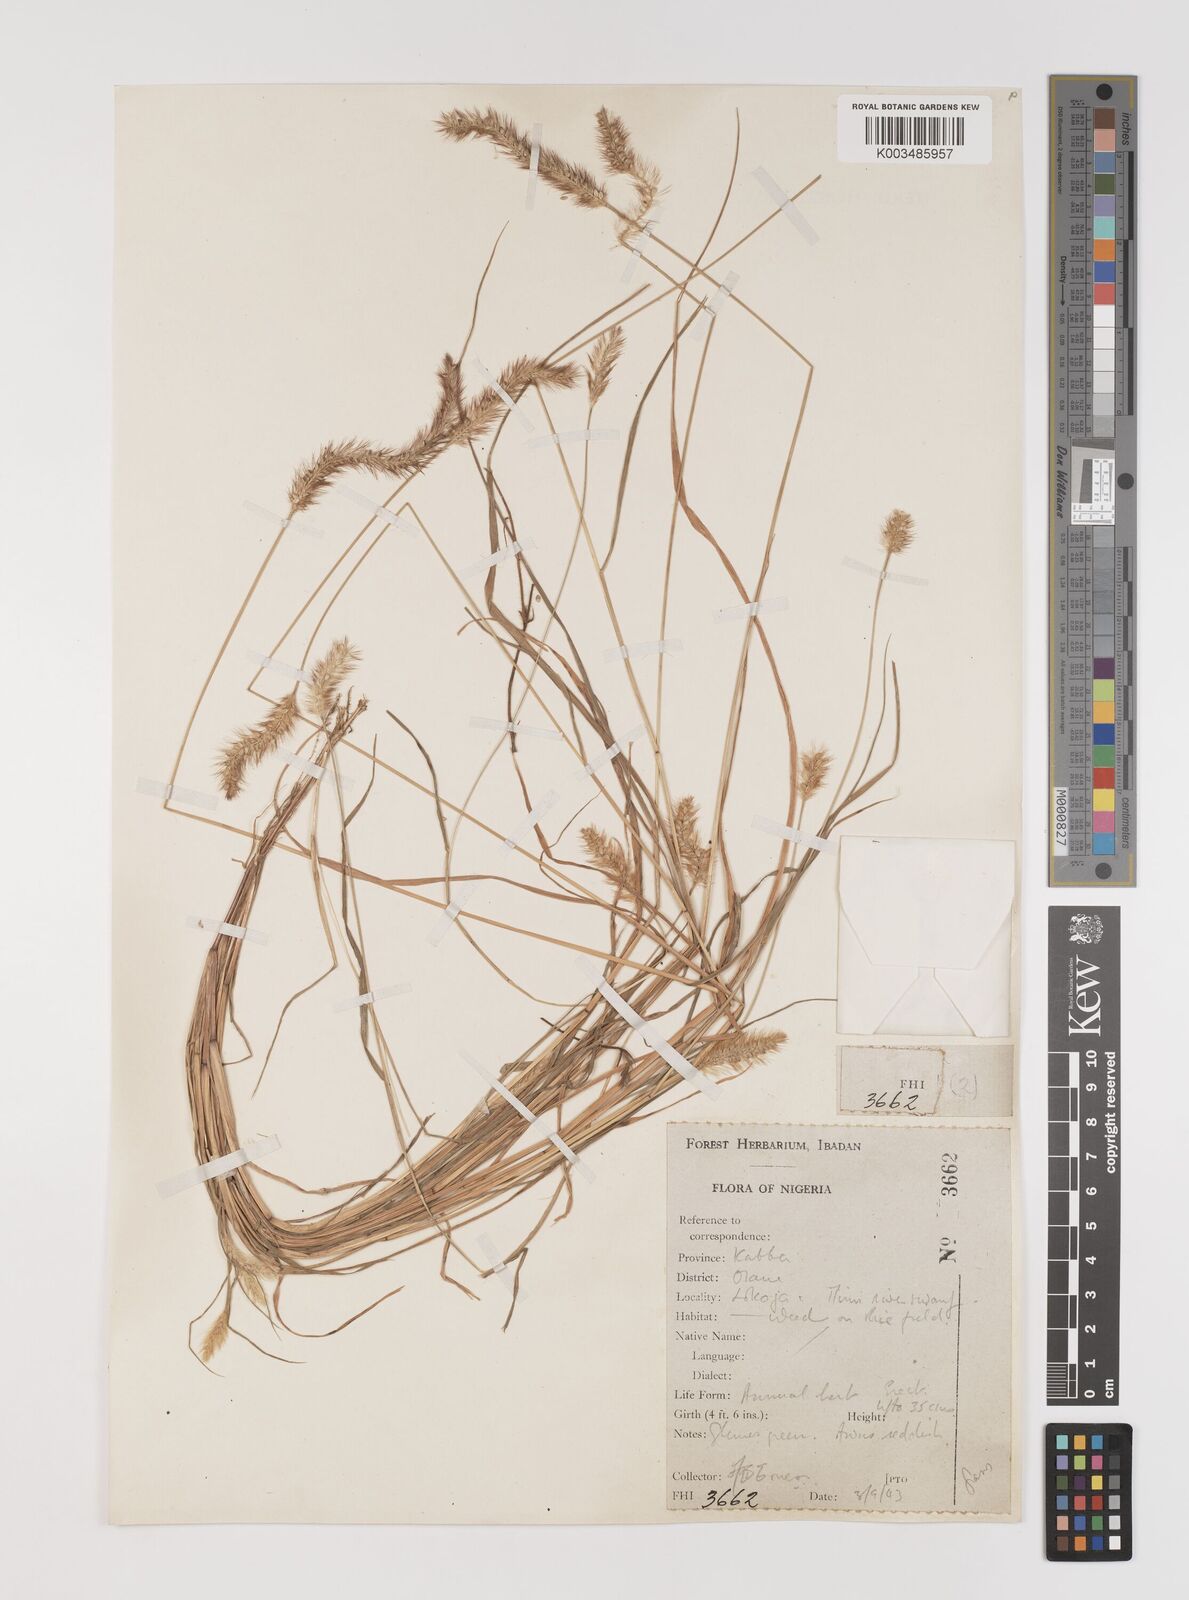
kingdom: Plantae
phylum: Tracheophyta
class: Liliopsida
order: Poales
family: Poaceae
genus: Setaria
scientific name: Setaria pumila
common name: Yellow bristle-grass
